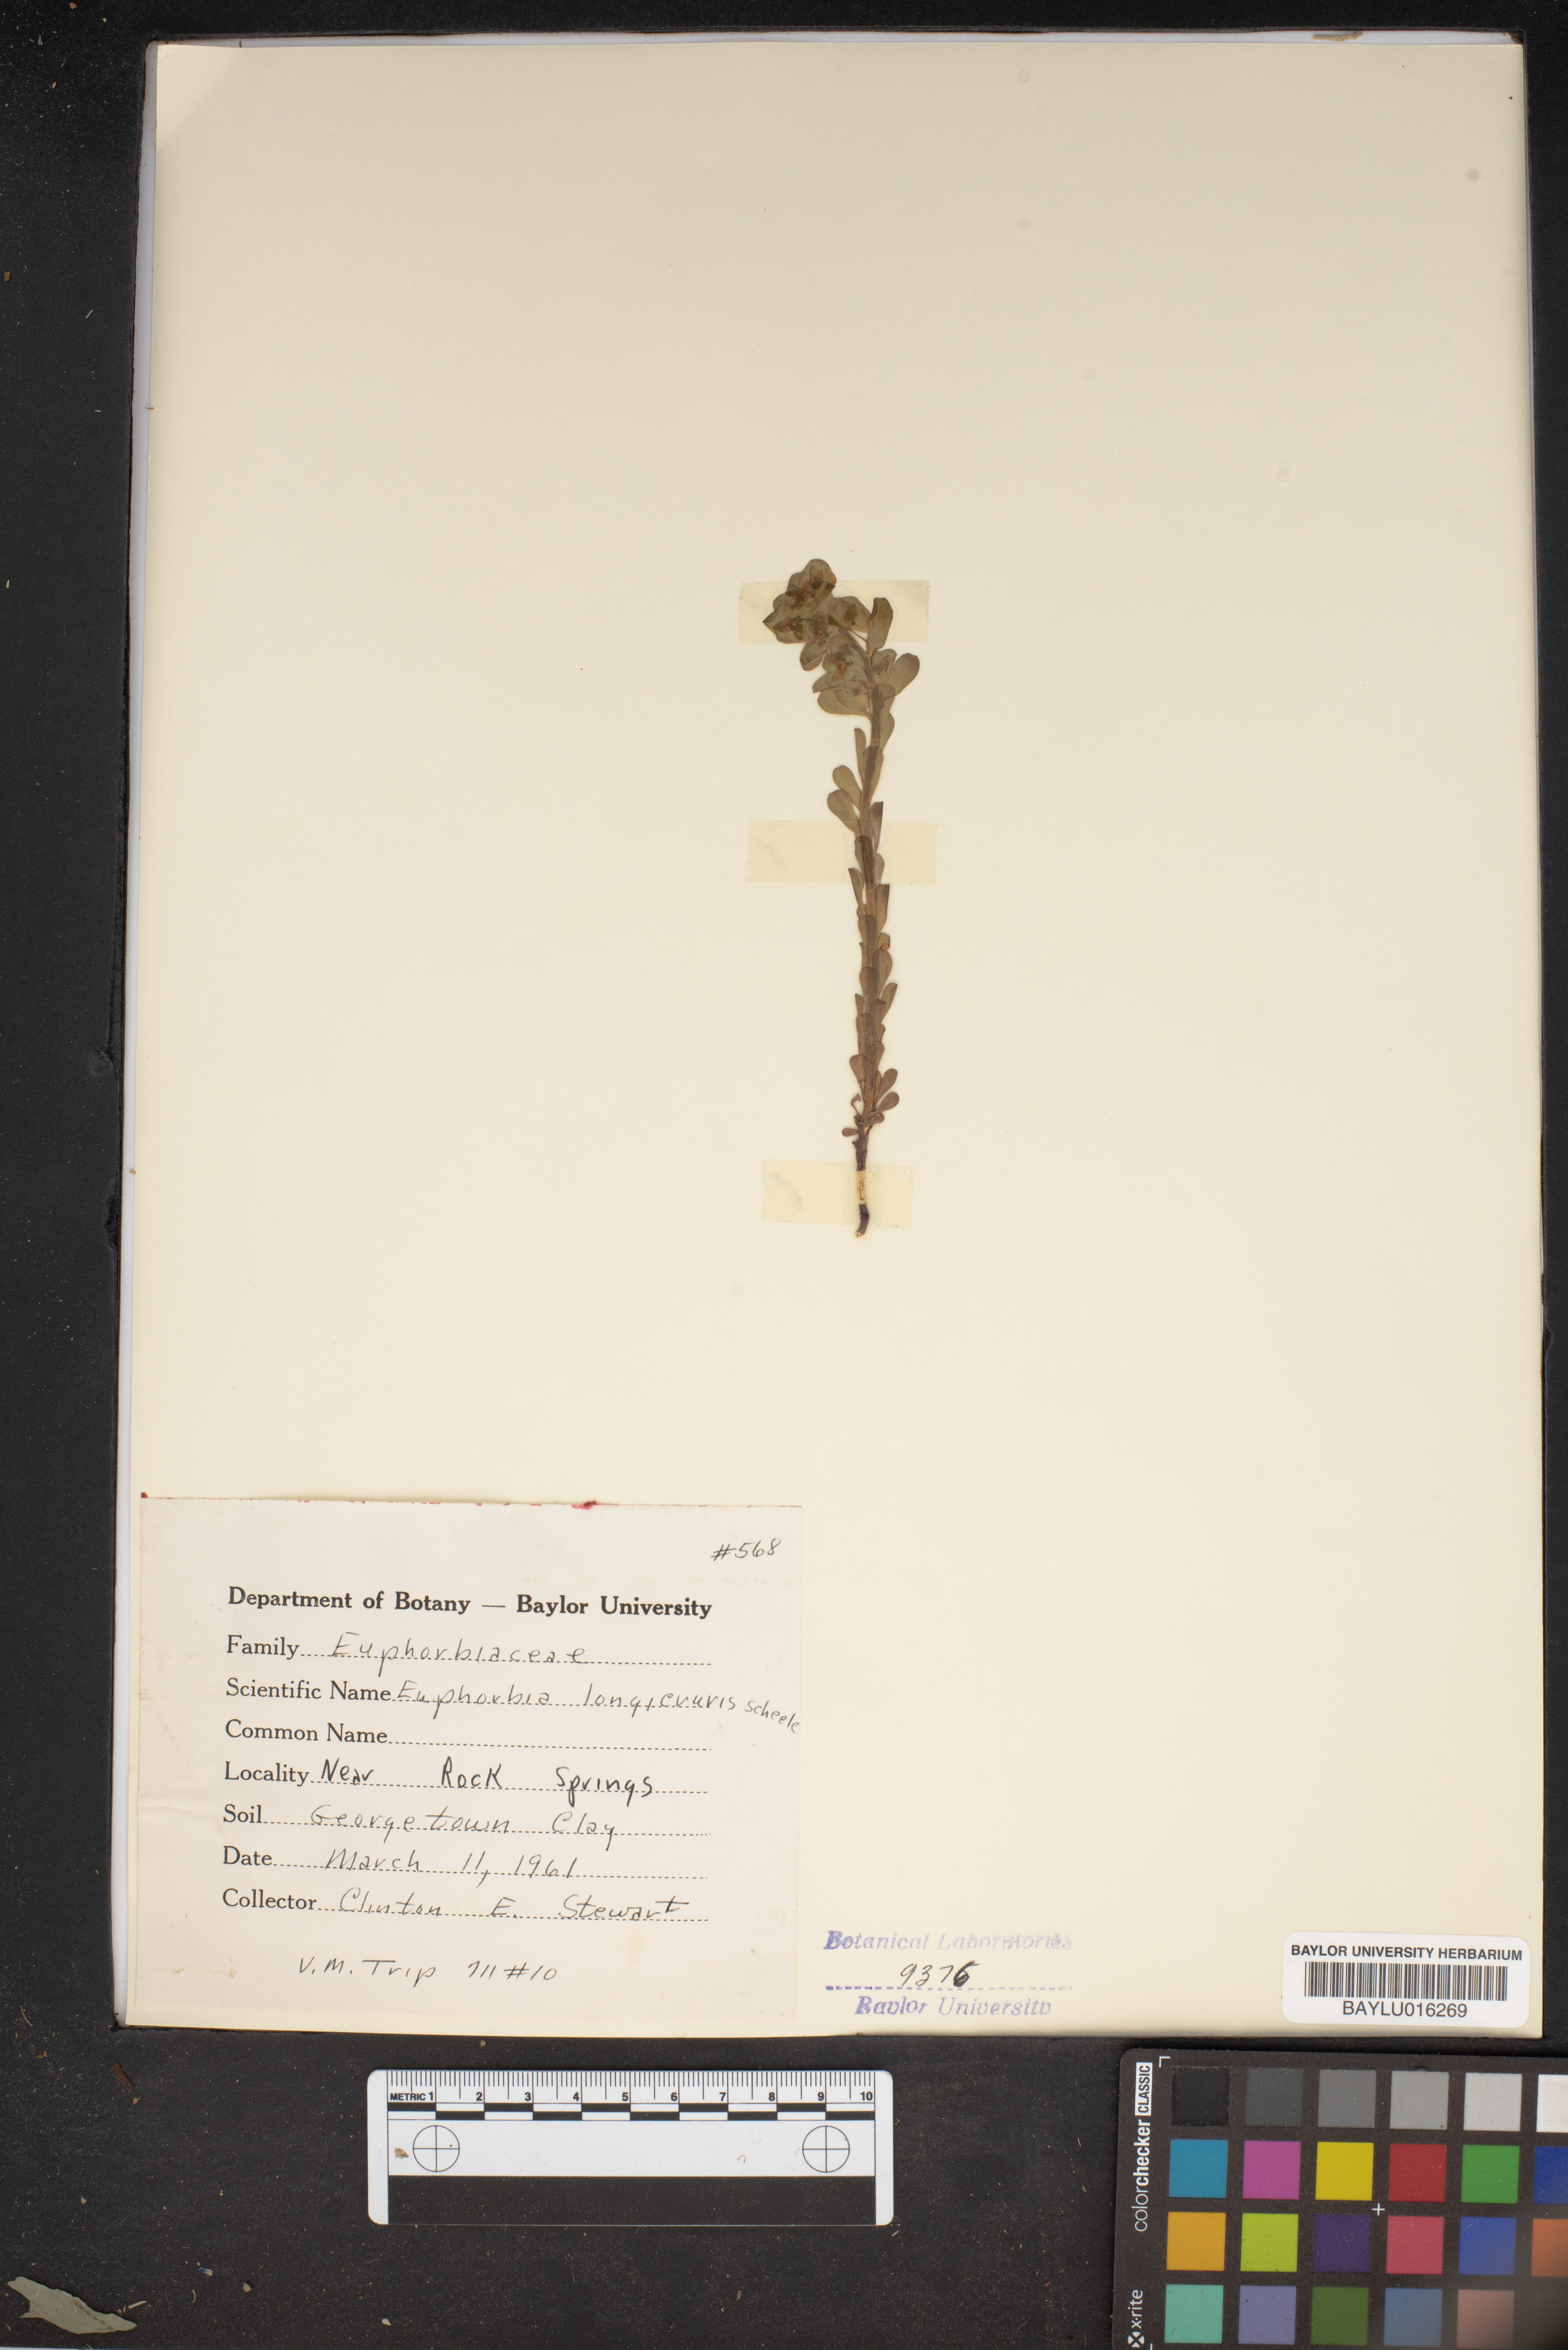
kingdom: Plantae
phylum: Tracheophyta
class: Magnoliopsida
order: Malpighiales
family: Euphorbiaceae
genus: Euphorbia
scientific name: Euphorbia longicruris
